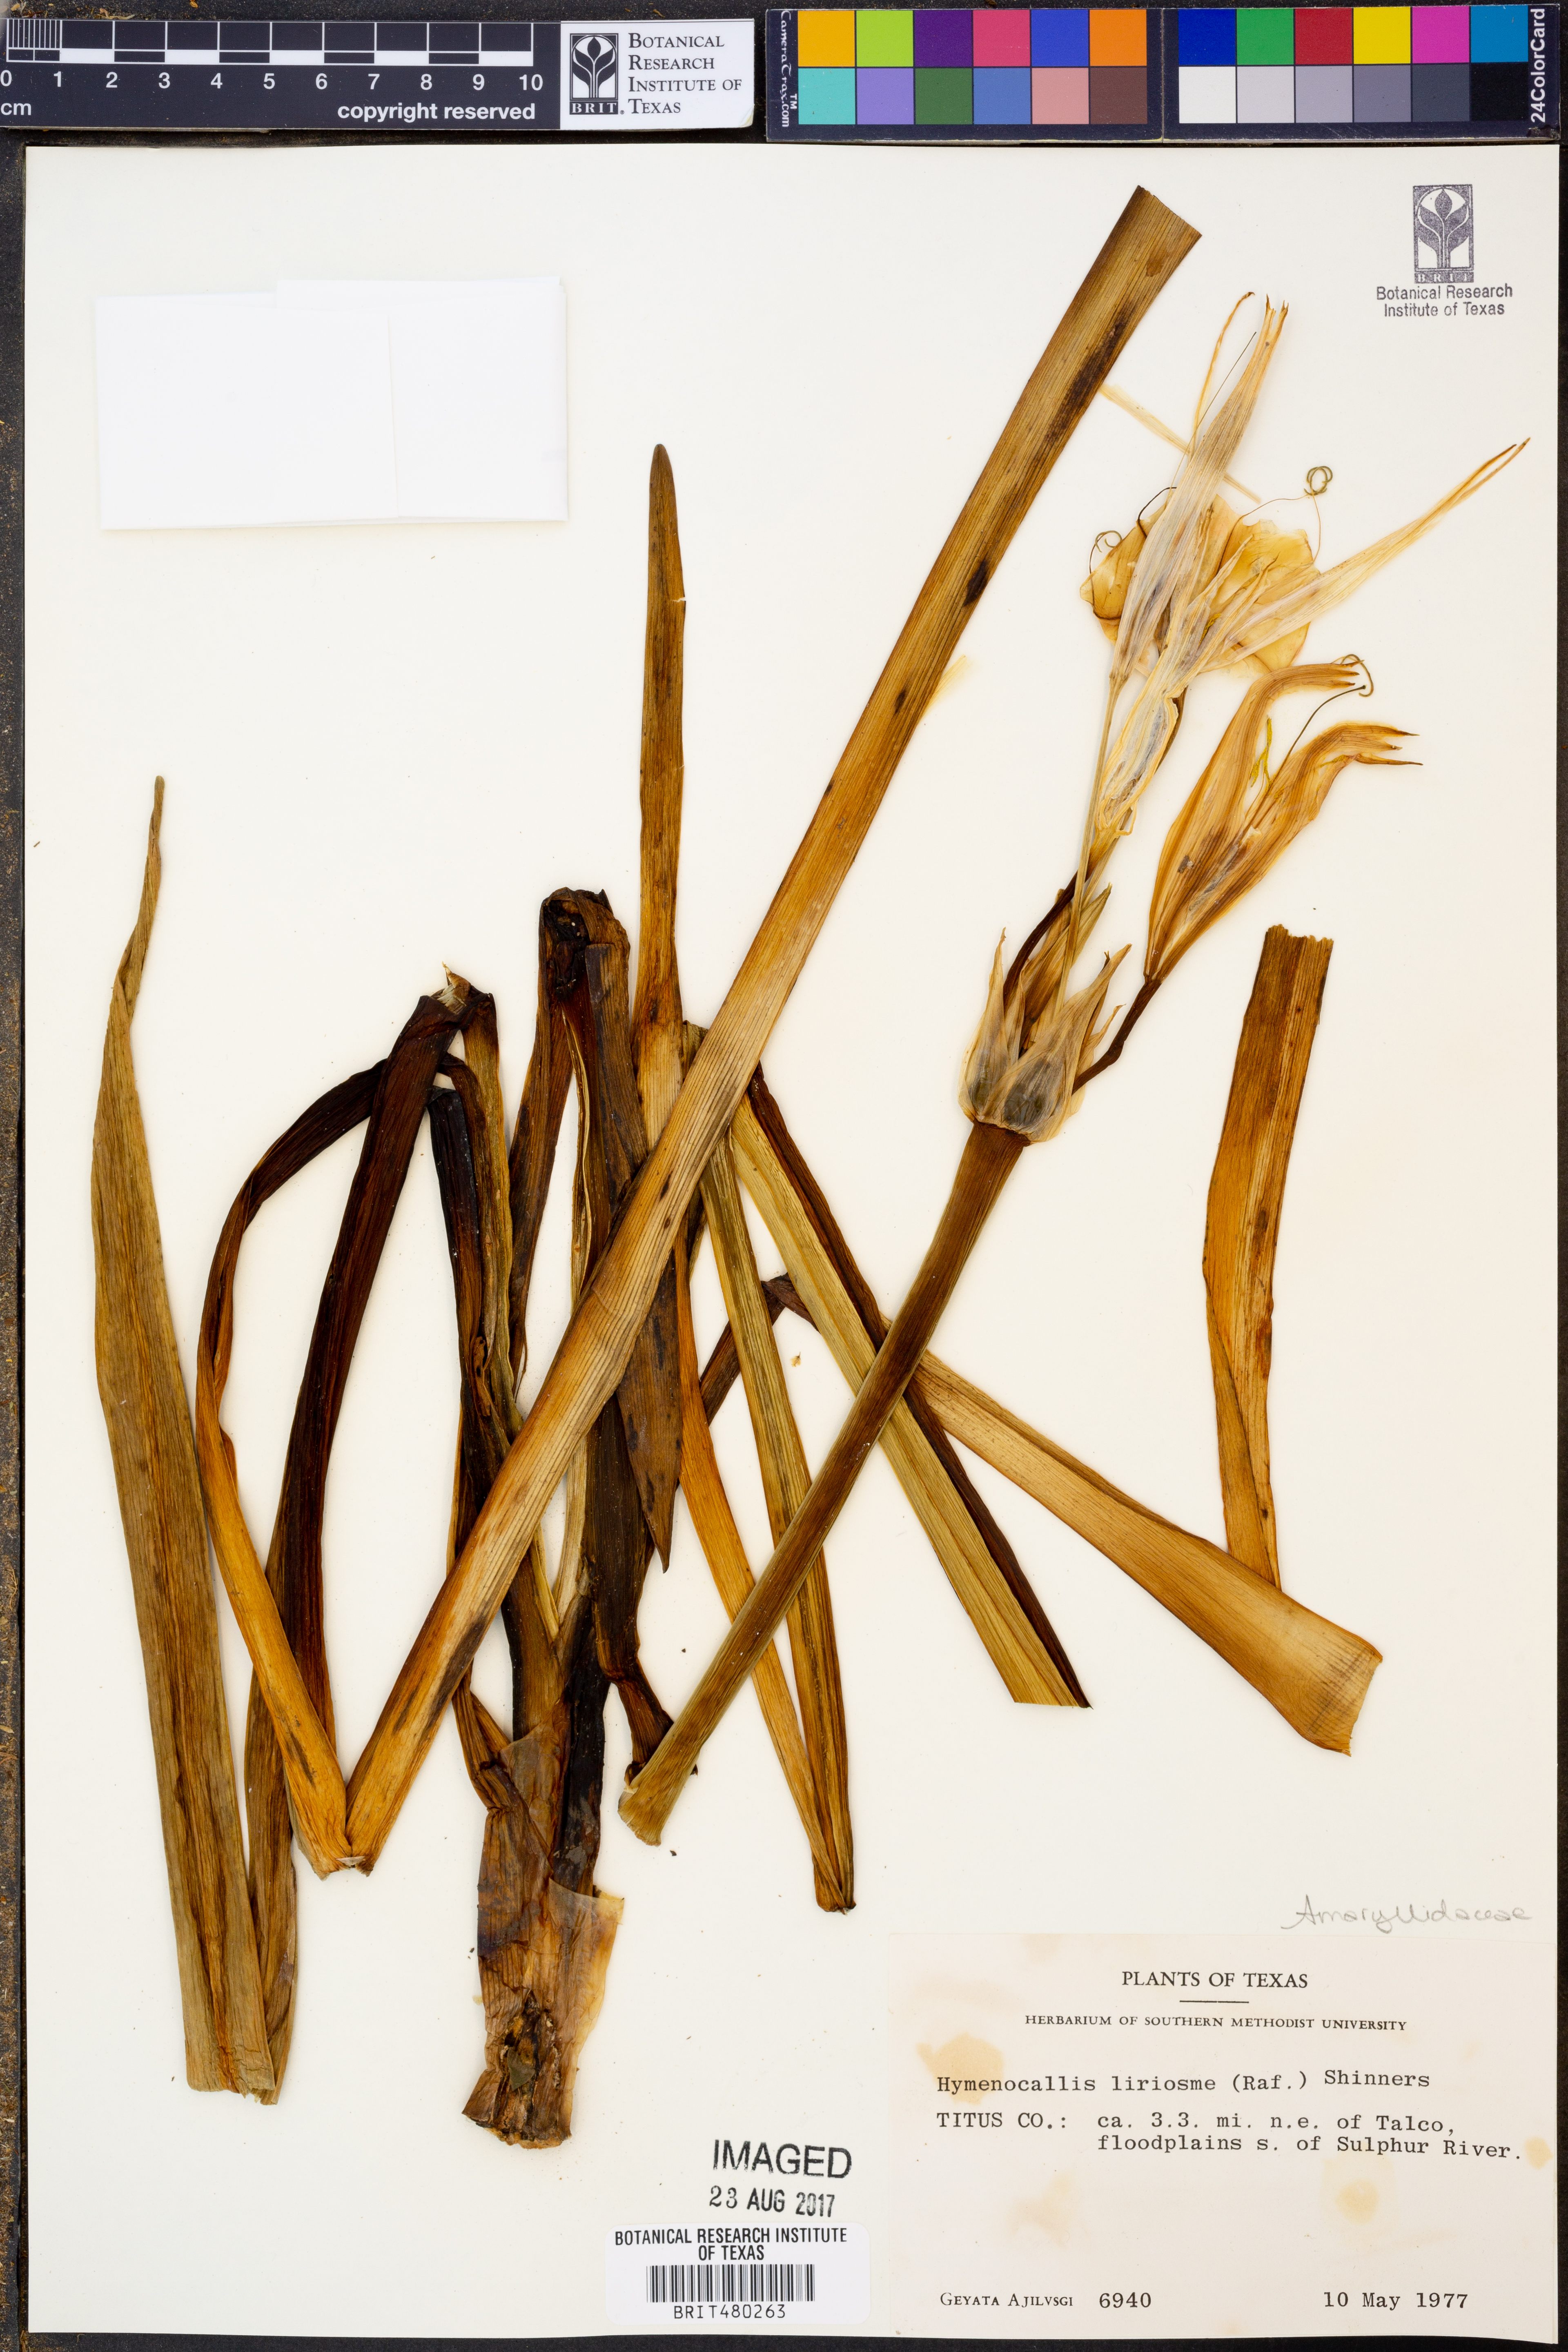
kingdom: Plantae
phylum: Tracheophyta
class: Liliopsida
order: Asparagales
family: Amaryllidaceae
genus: Hymenocallis
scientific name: Hymenocallis liriosme
